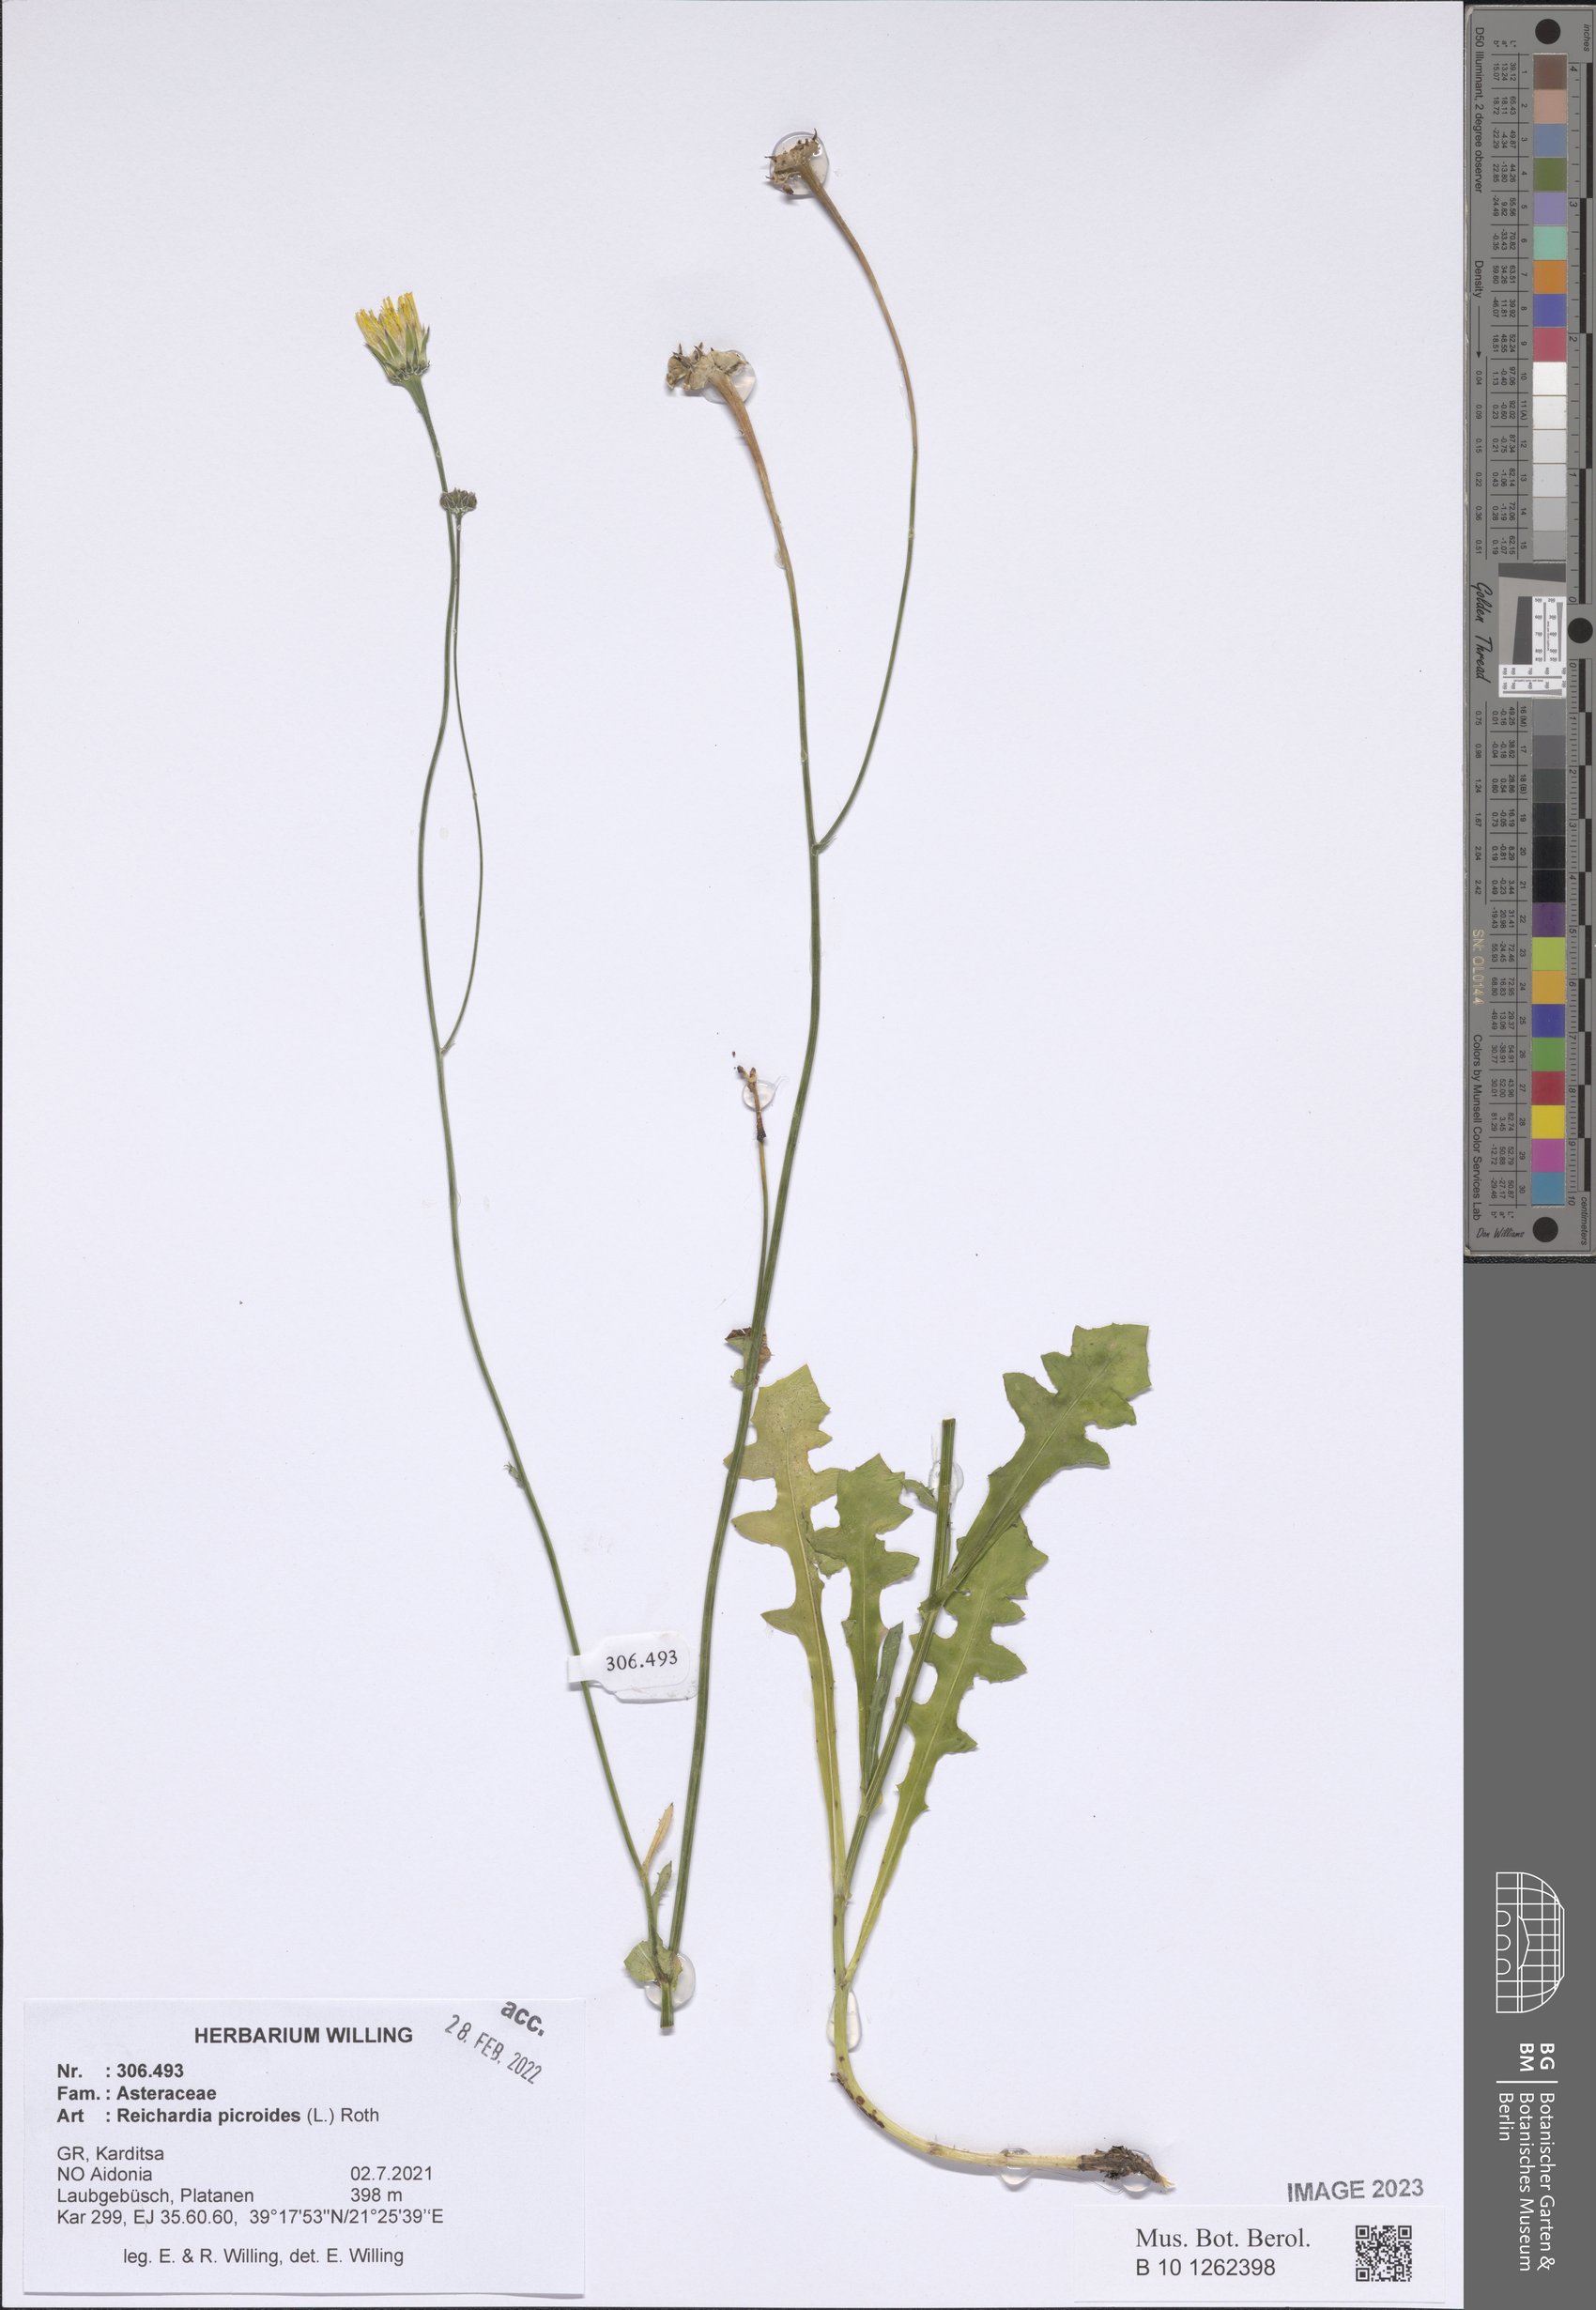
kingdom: Plantae
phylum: Tracheophyta
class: Magnoliopsida
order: Asterales
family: Asteraceae
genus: Reichardia
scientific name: Reichardia picroides
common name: Common brighteyes
